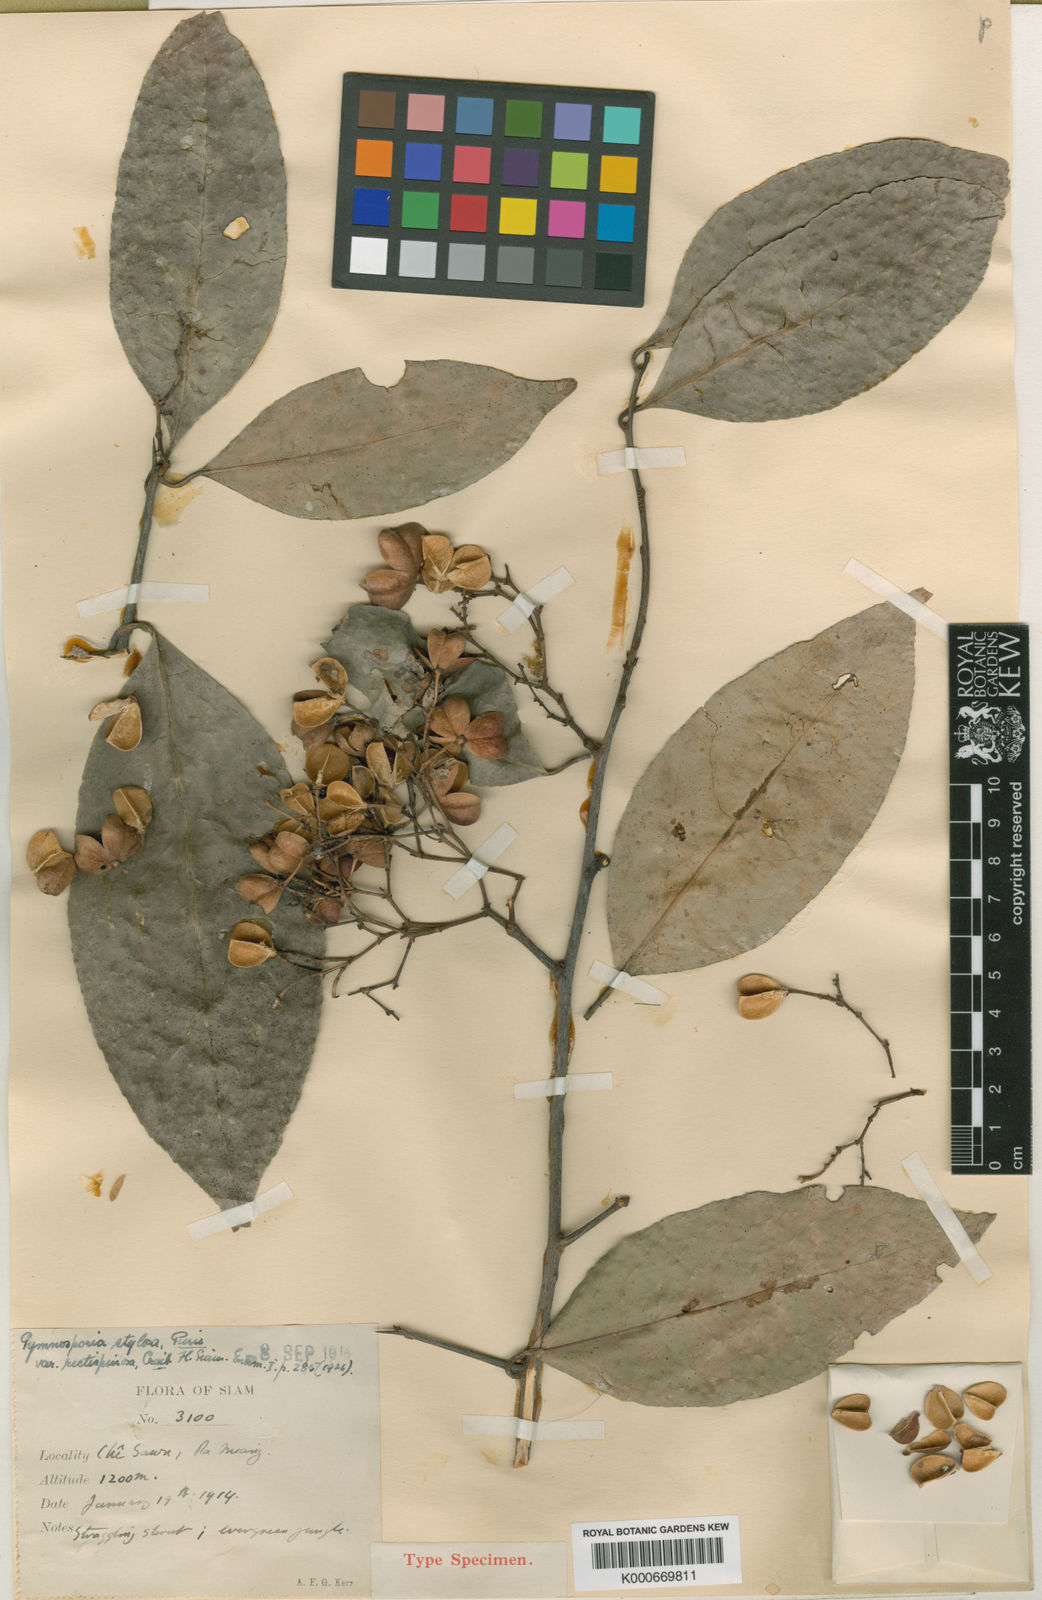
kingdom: Plantae
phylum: Tracheophyta
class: Magnoliopsida
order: Celastrales
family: Celastraceae
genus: Gymnosporia
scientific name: Gymnosporia stylosa
